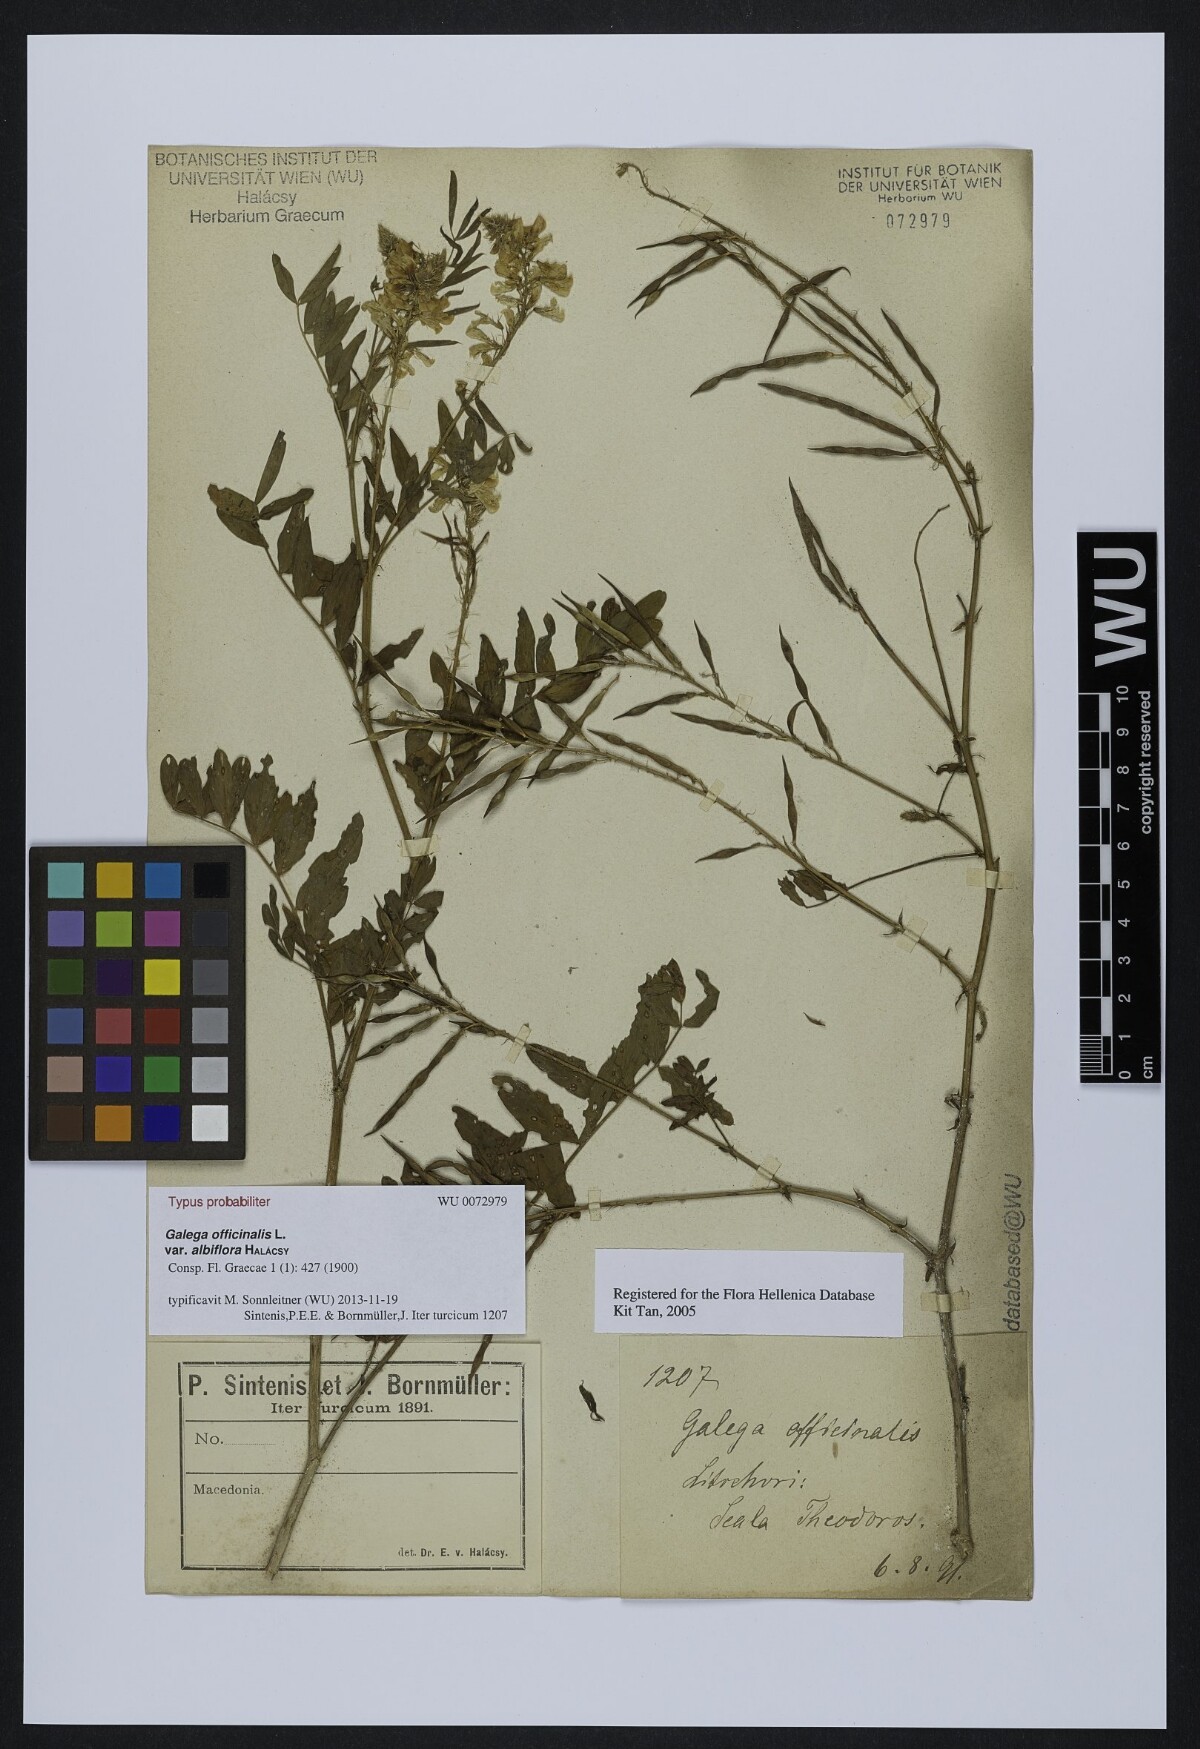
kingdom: Plantae
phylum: Tracheophyta
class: Magnoliopsida
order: Fabales
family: Fabaceae
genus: Galega
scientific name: Galega officinalis
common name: Goat's-rue
